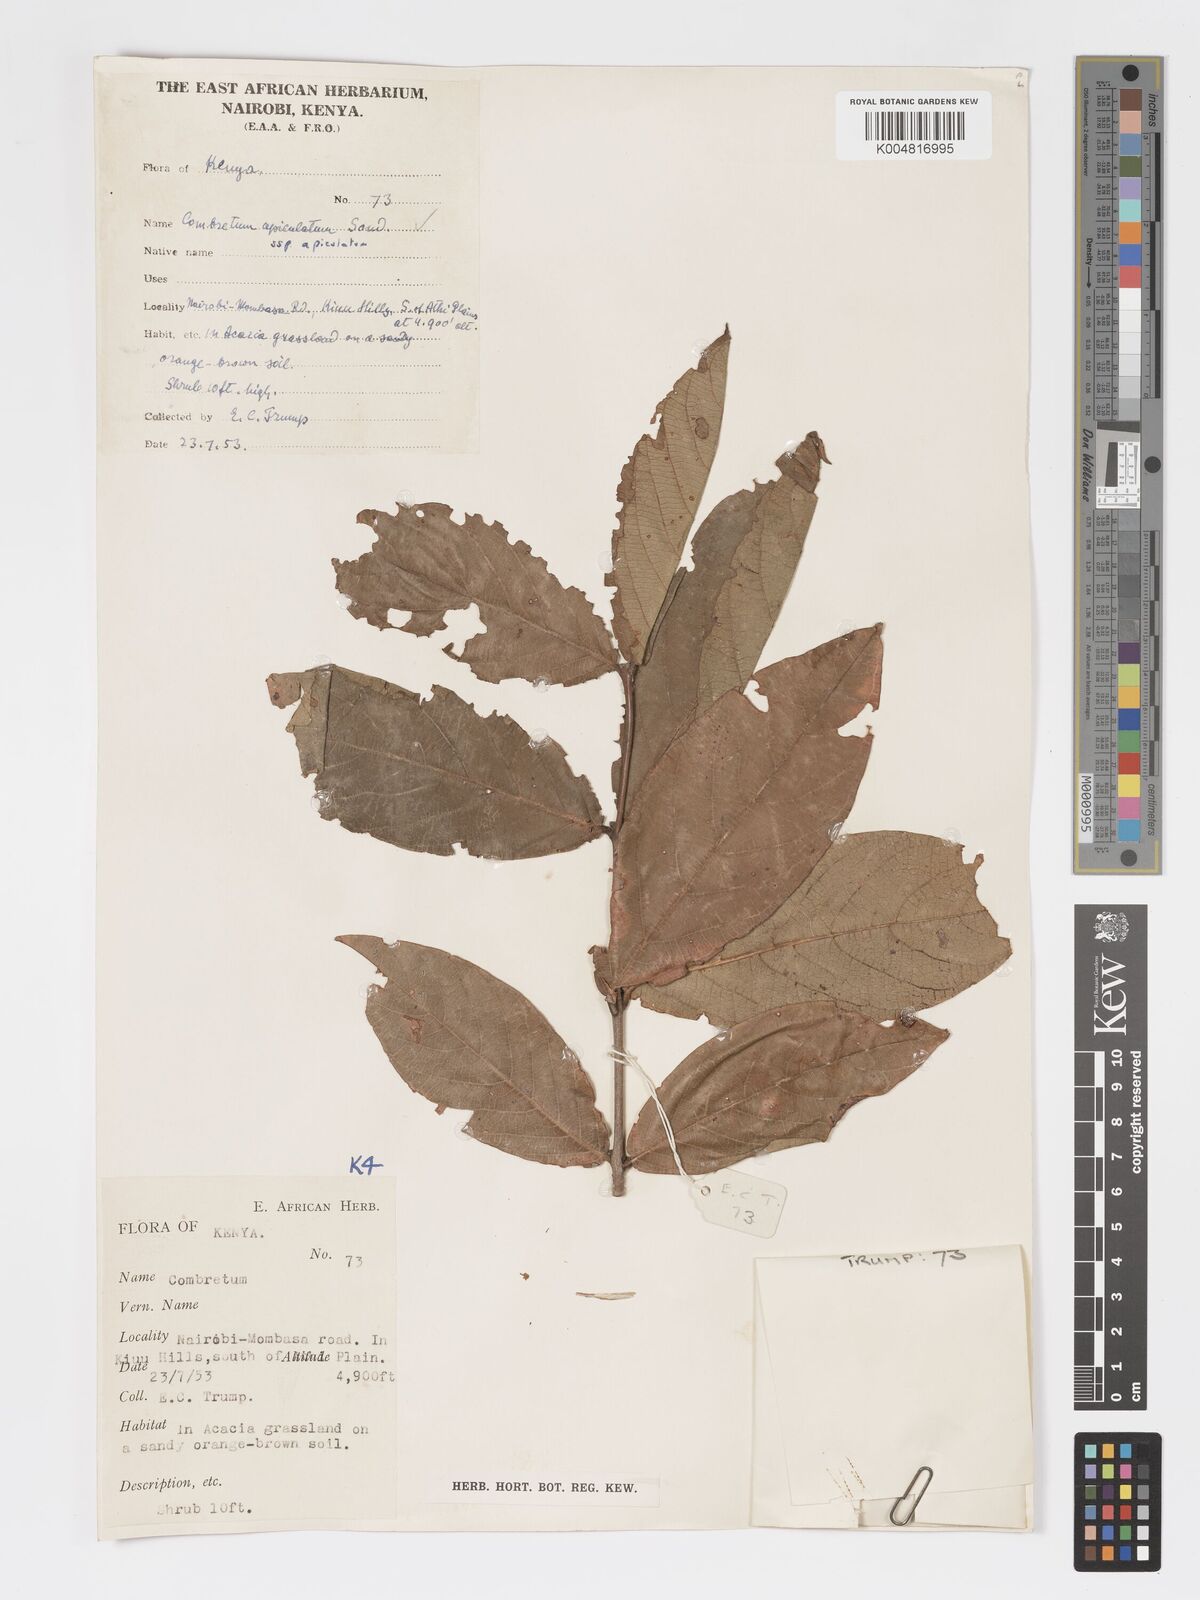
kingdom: Plantae
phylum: Tracheophyta
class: Magnoliopsida
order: Myrtales
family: Combretaceae
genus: Combretum
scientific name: Combretum apiculatum
